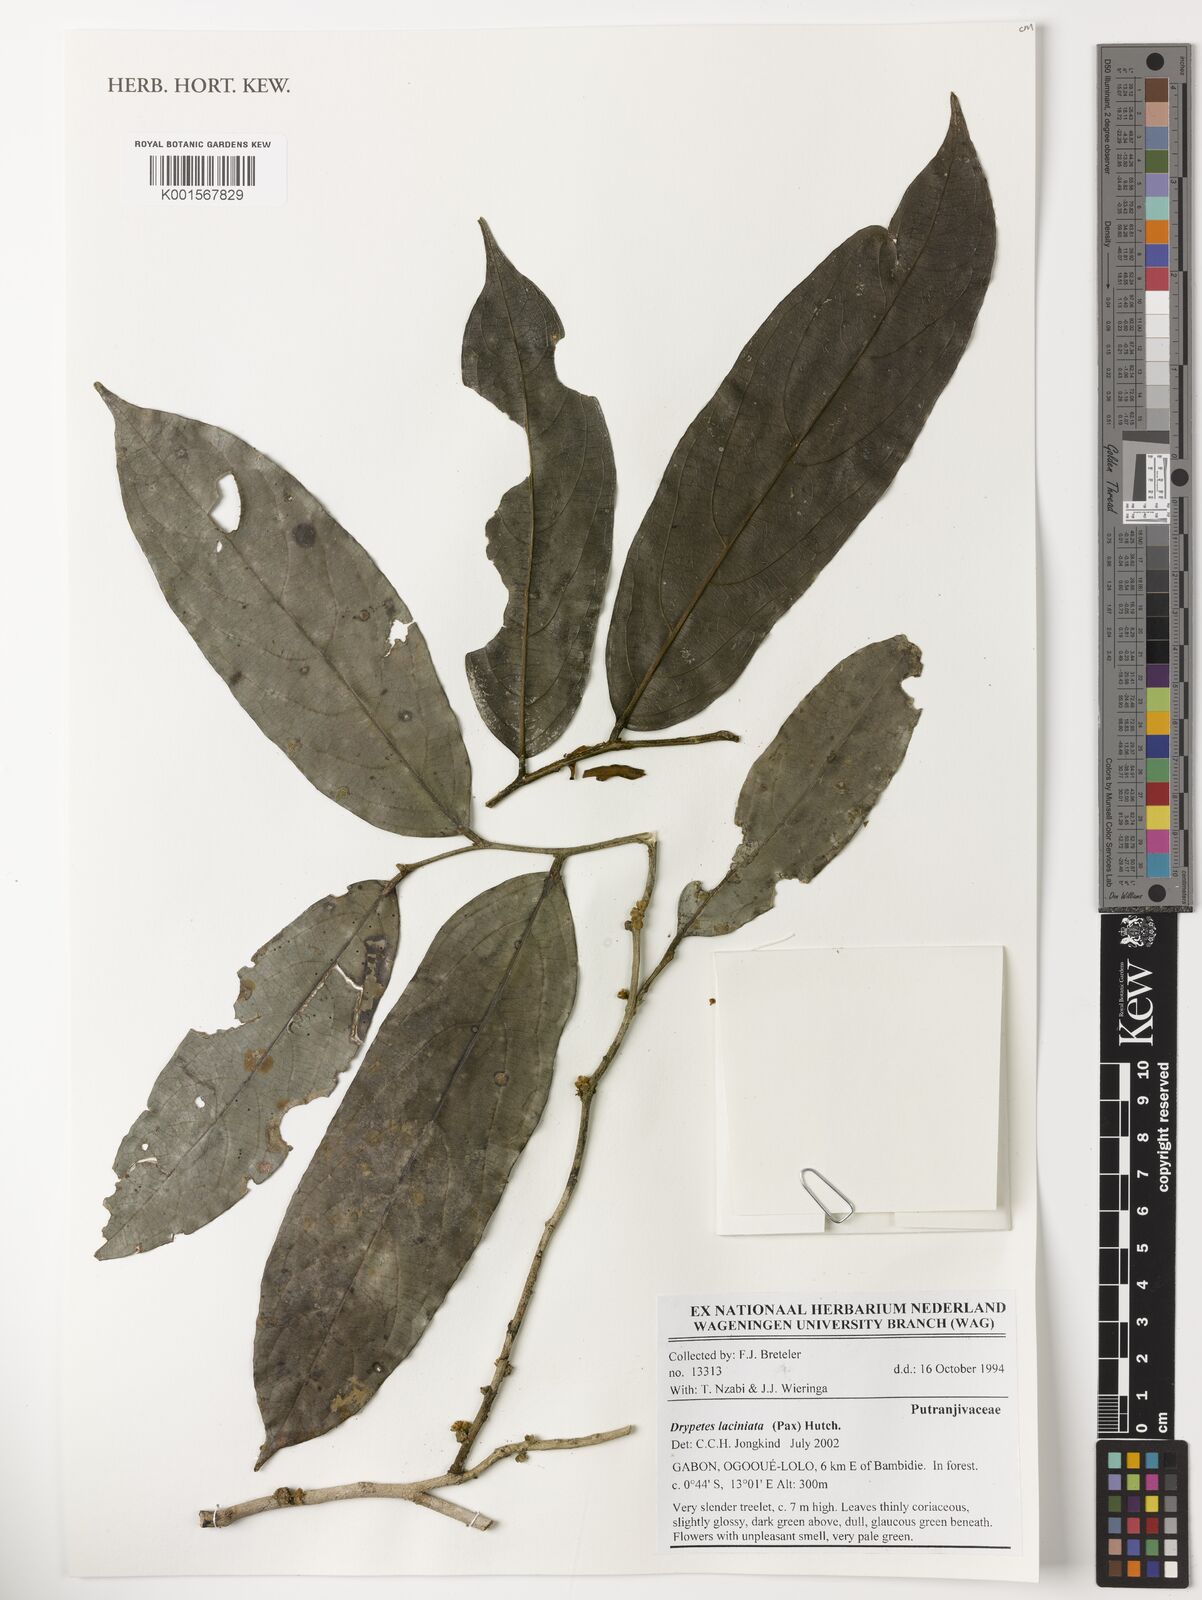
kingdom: Plantae
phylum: Tracheophyta
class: Magnoliopsida
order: Malpighiales
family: Putranjivaceae
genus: Drypetes
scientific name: Drypetes laciniata
